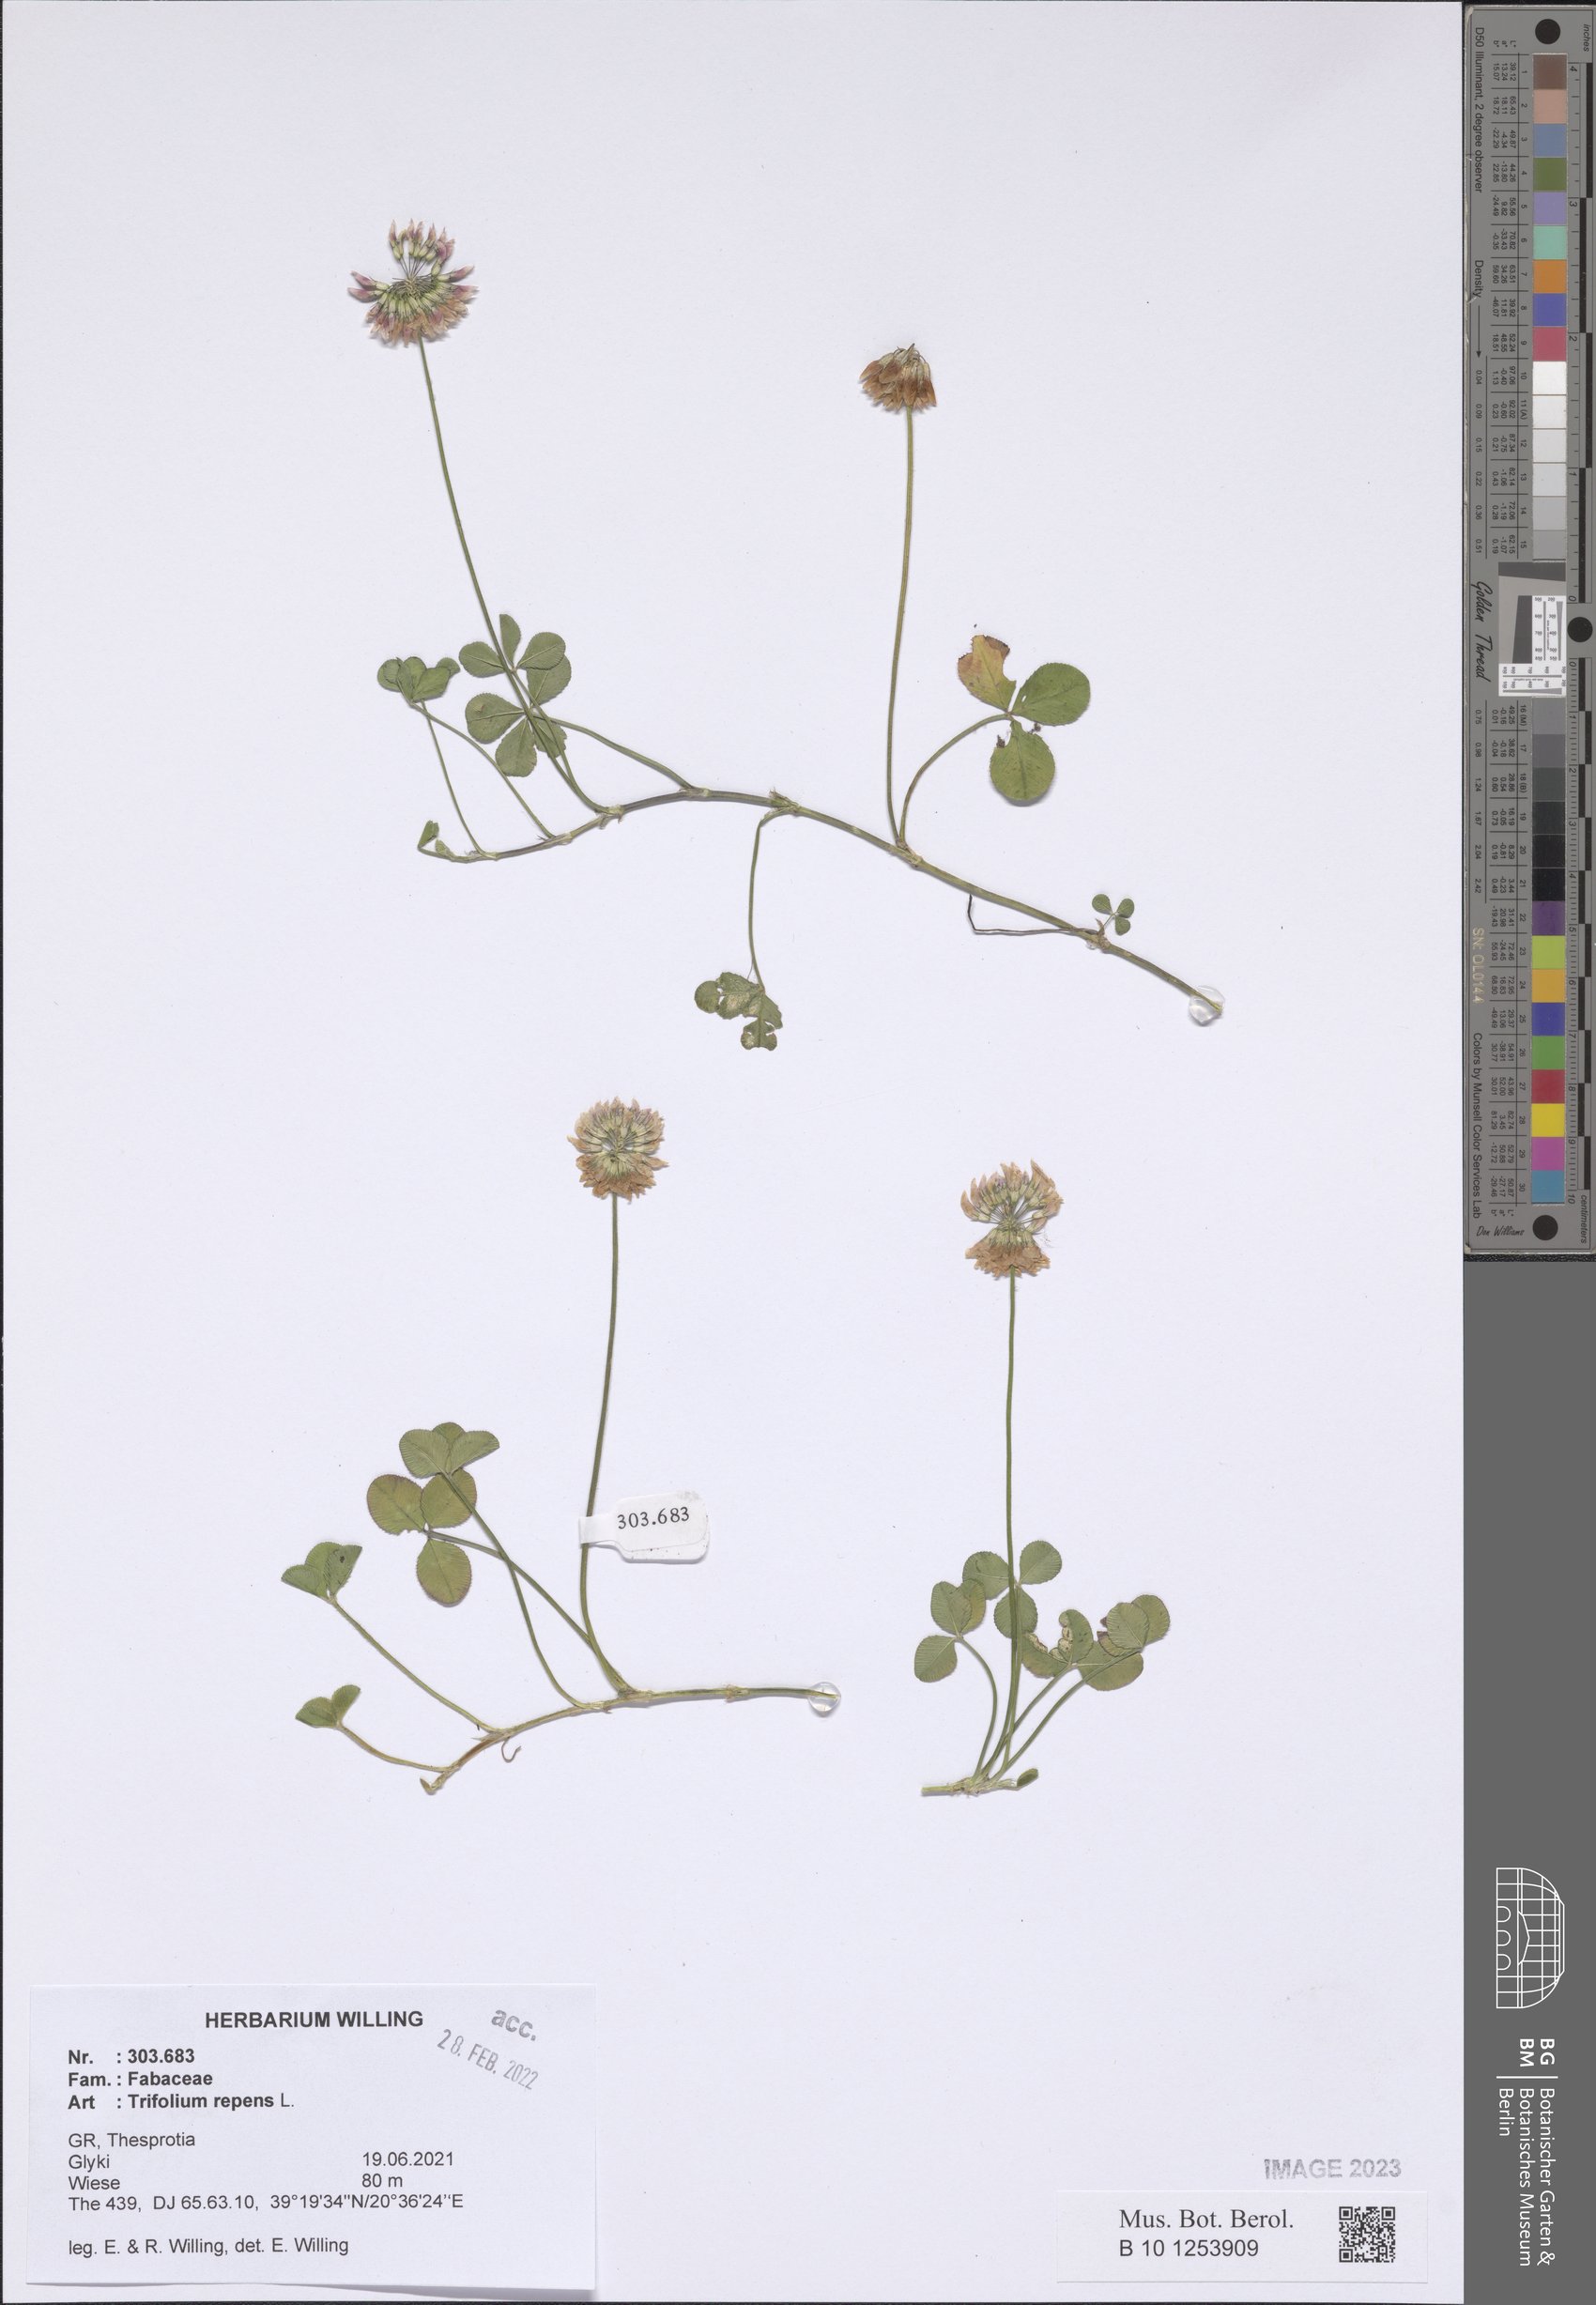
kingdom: Plantae
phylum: Tracheophyta
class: Magnoliopsida
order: Fabales
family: Fabaceae
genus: Trifolium
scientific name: Trifolium repens
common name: White clover
